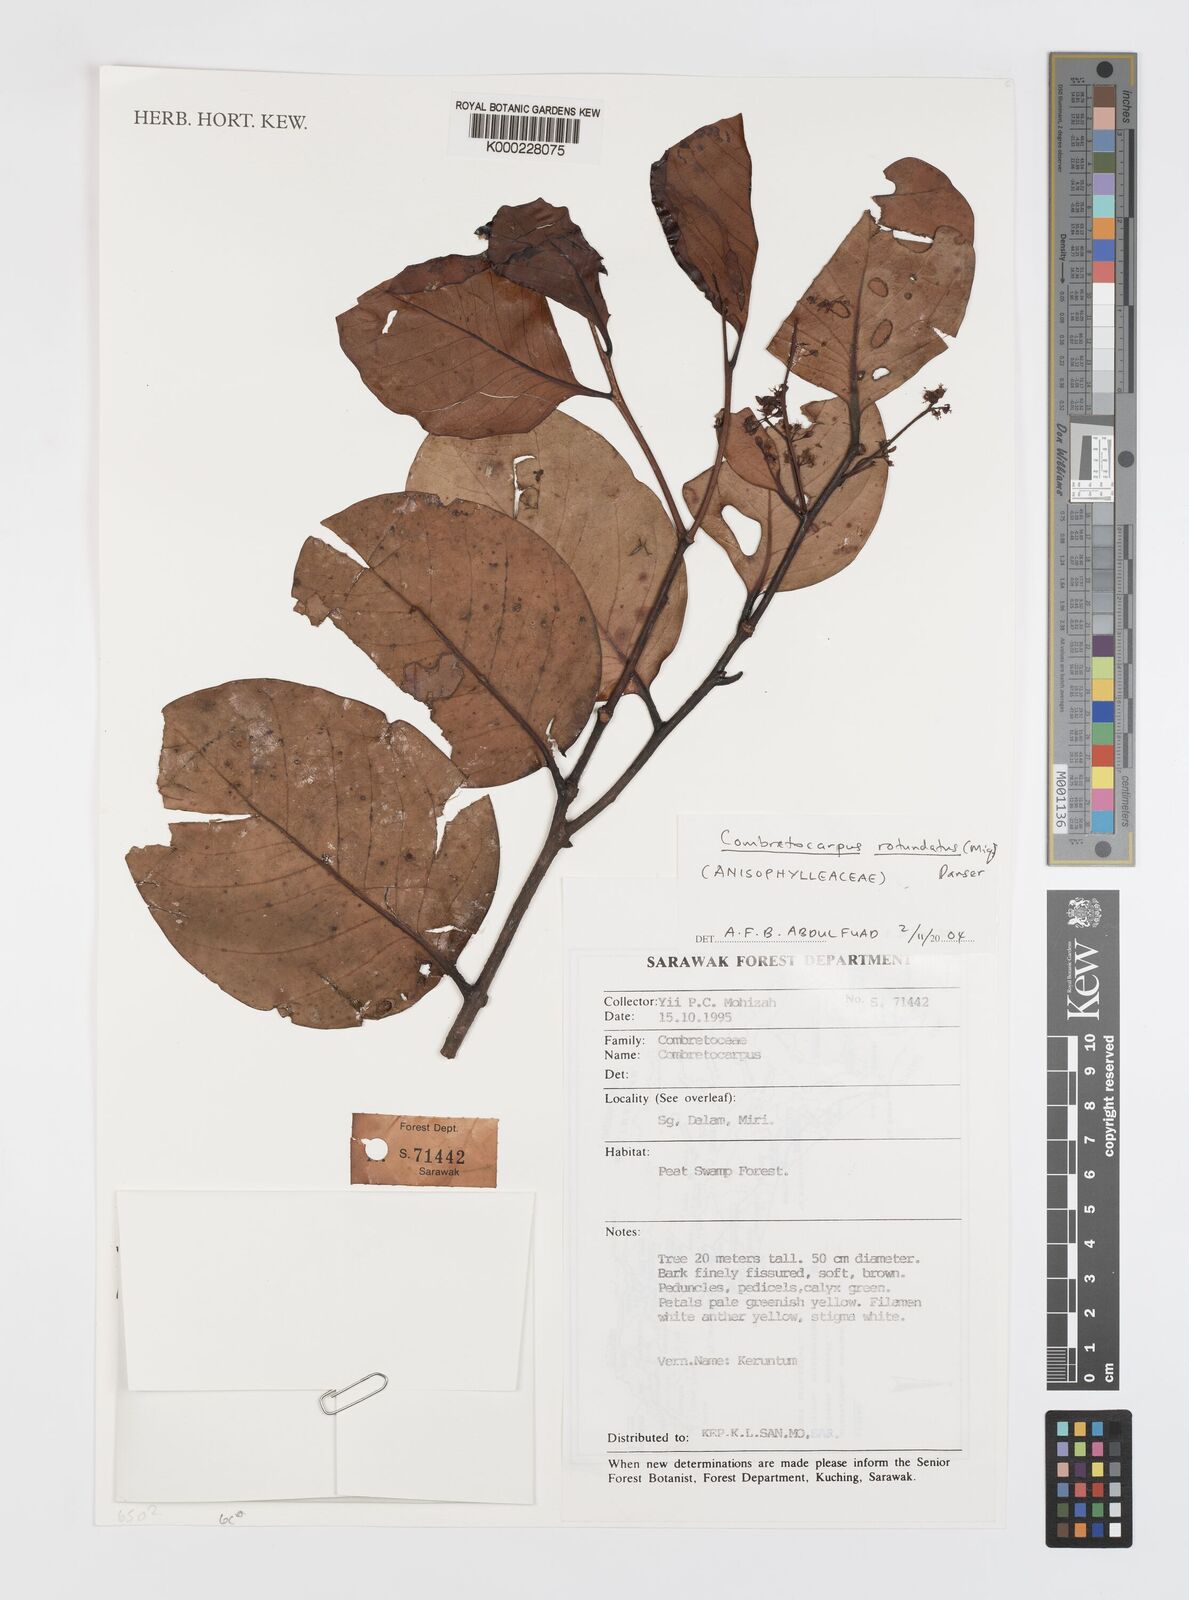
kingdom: Plantae
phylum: Tracheophyta
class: Magnoliopsida
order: Cucurbitales
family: Anisophylleaceae
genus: Combretocarpus
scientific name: Combretocarpus rotundatus
